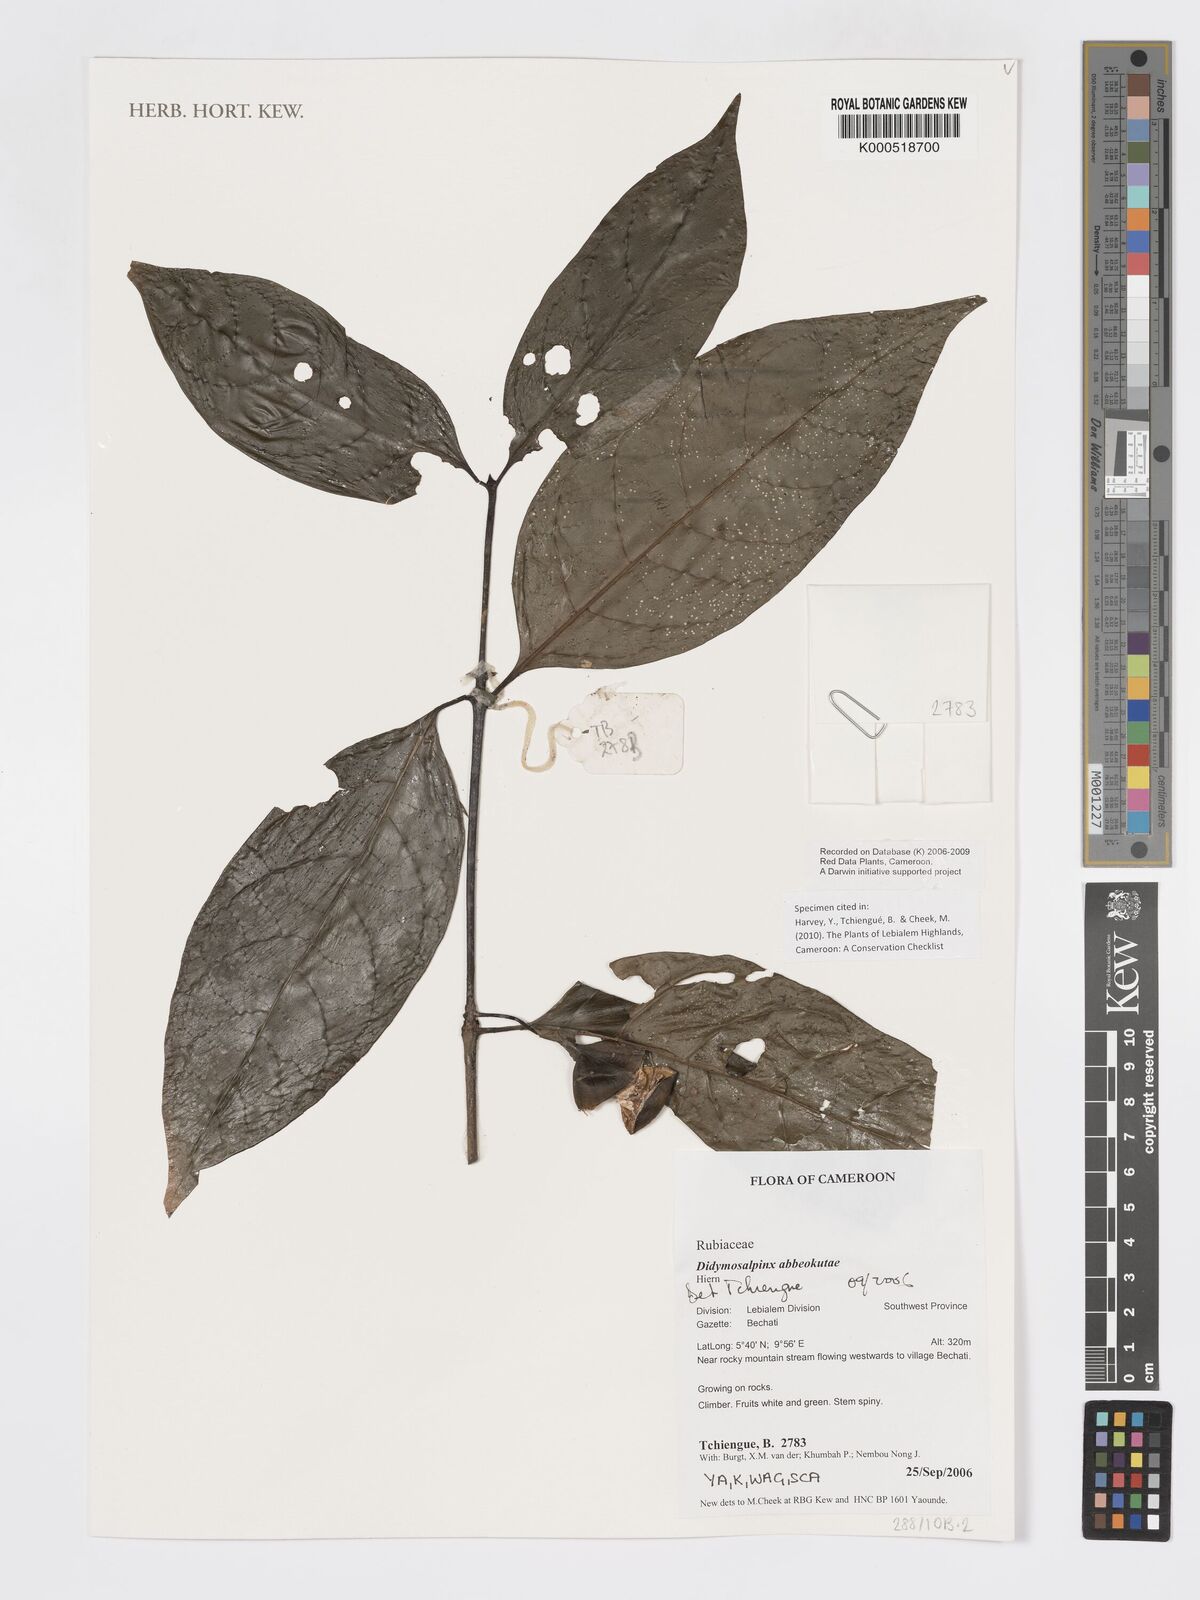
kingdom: Plantae
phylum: Tracheophyta
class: Magnoliopsida
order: Gentianales
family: Rubiaceae
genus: Didymosalpinx
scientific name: Didymosalpinx abbeokutae
